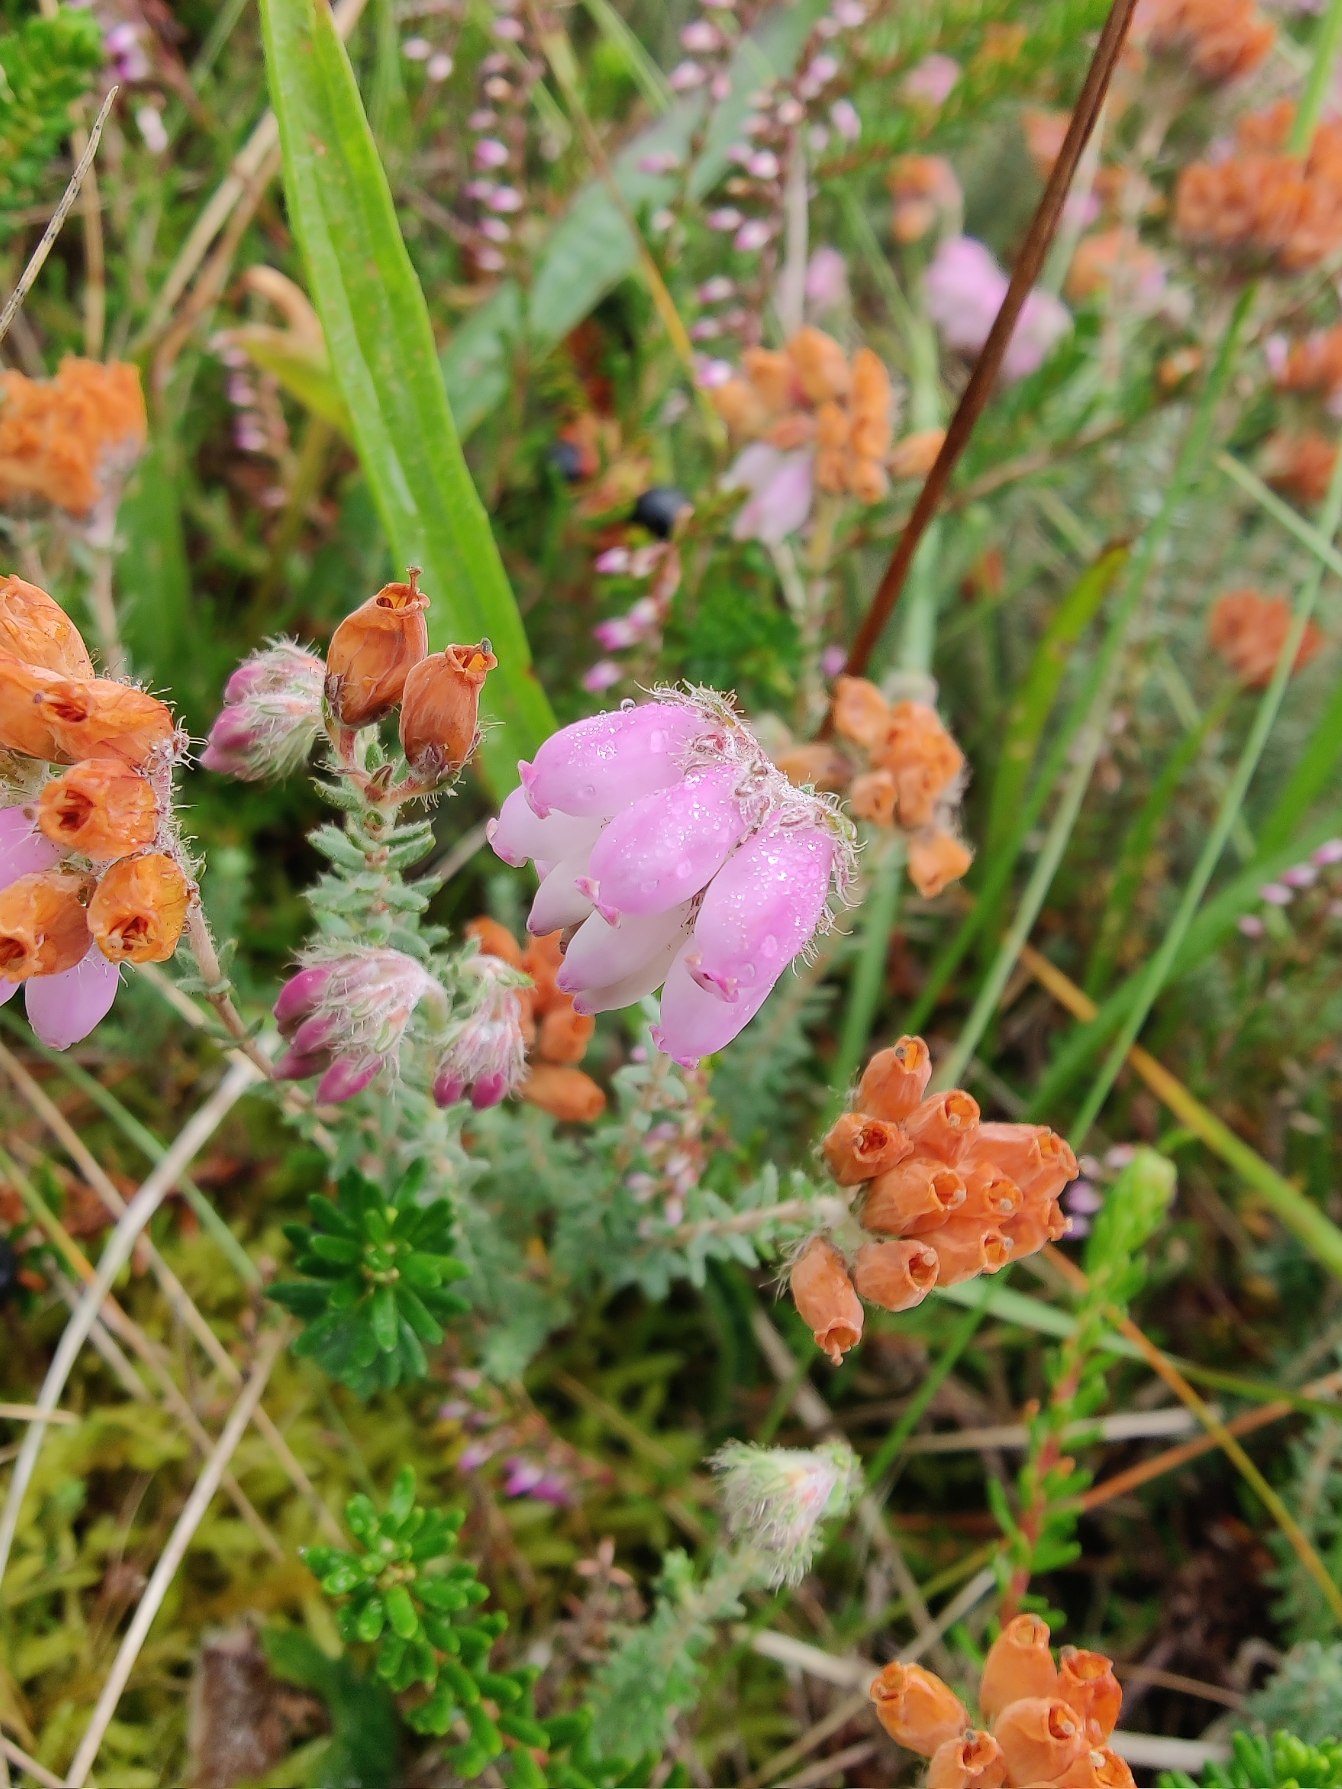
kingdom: Plantae
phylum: Tracheophyta
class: Magnoliopsida
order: Ericales
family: Ericaceae
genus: Erica
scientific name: Erica tetralix
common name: Klokkelyng
